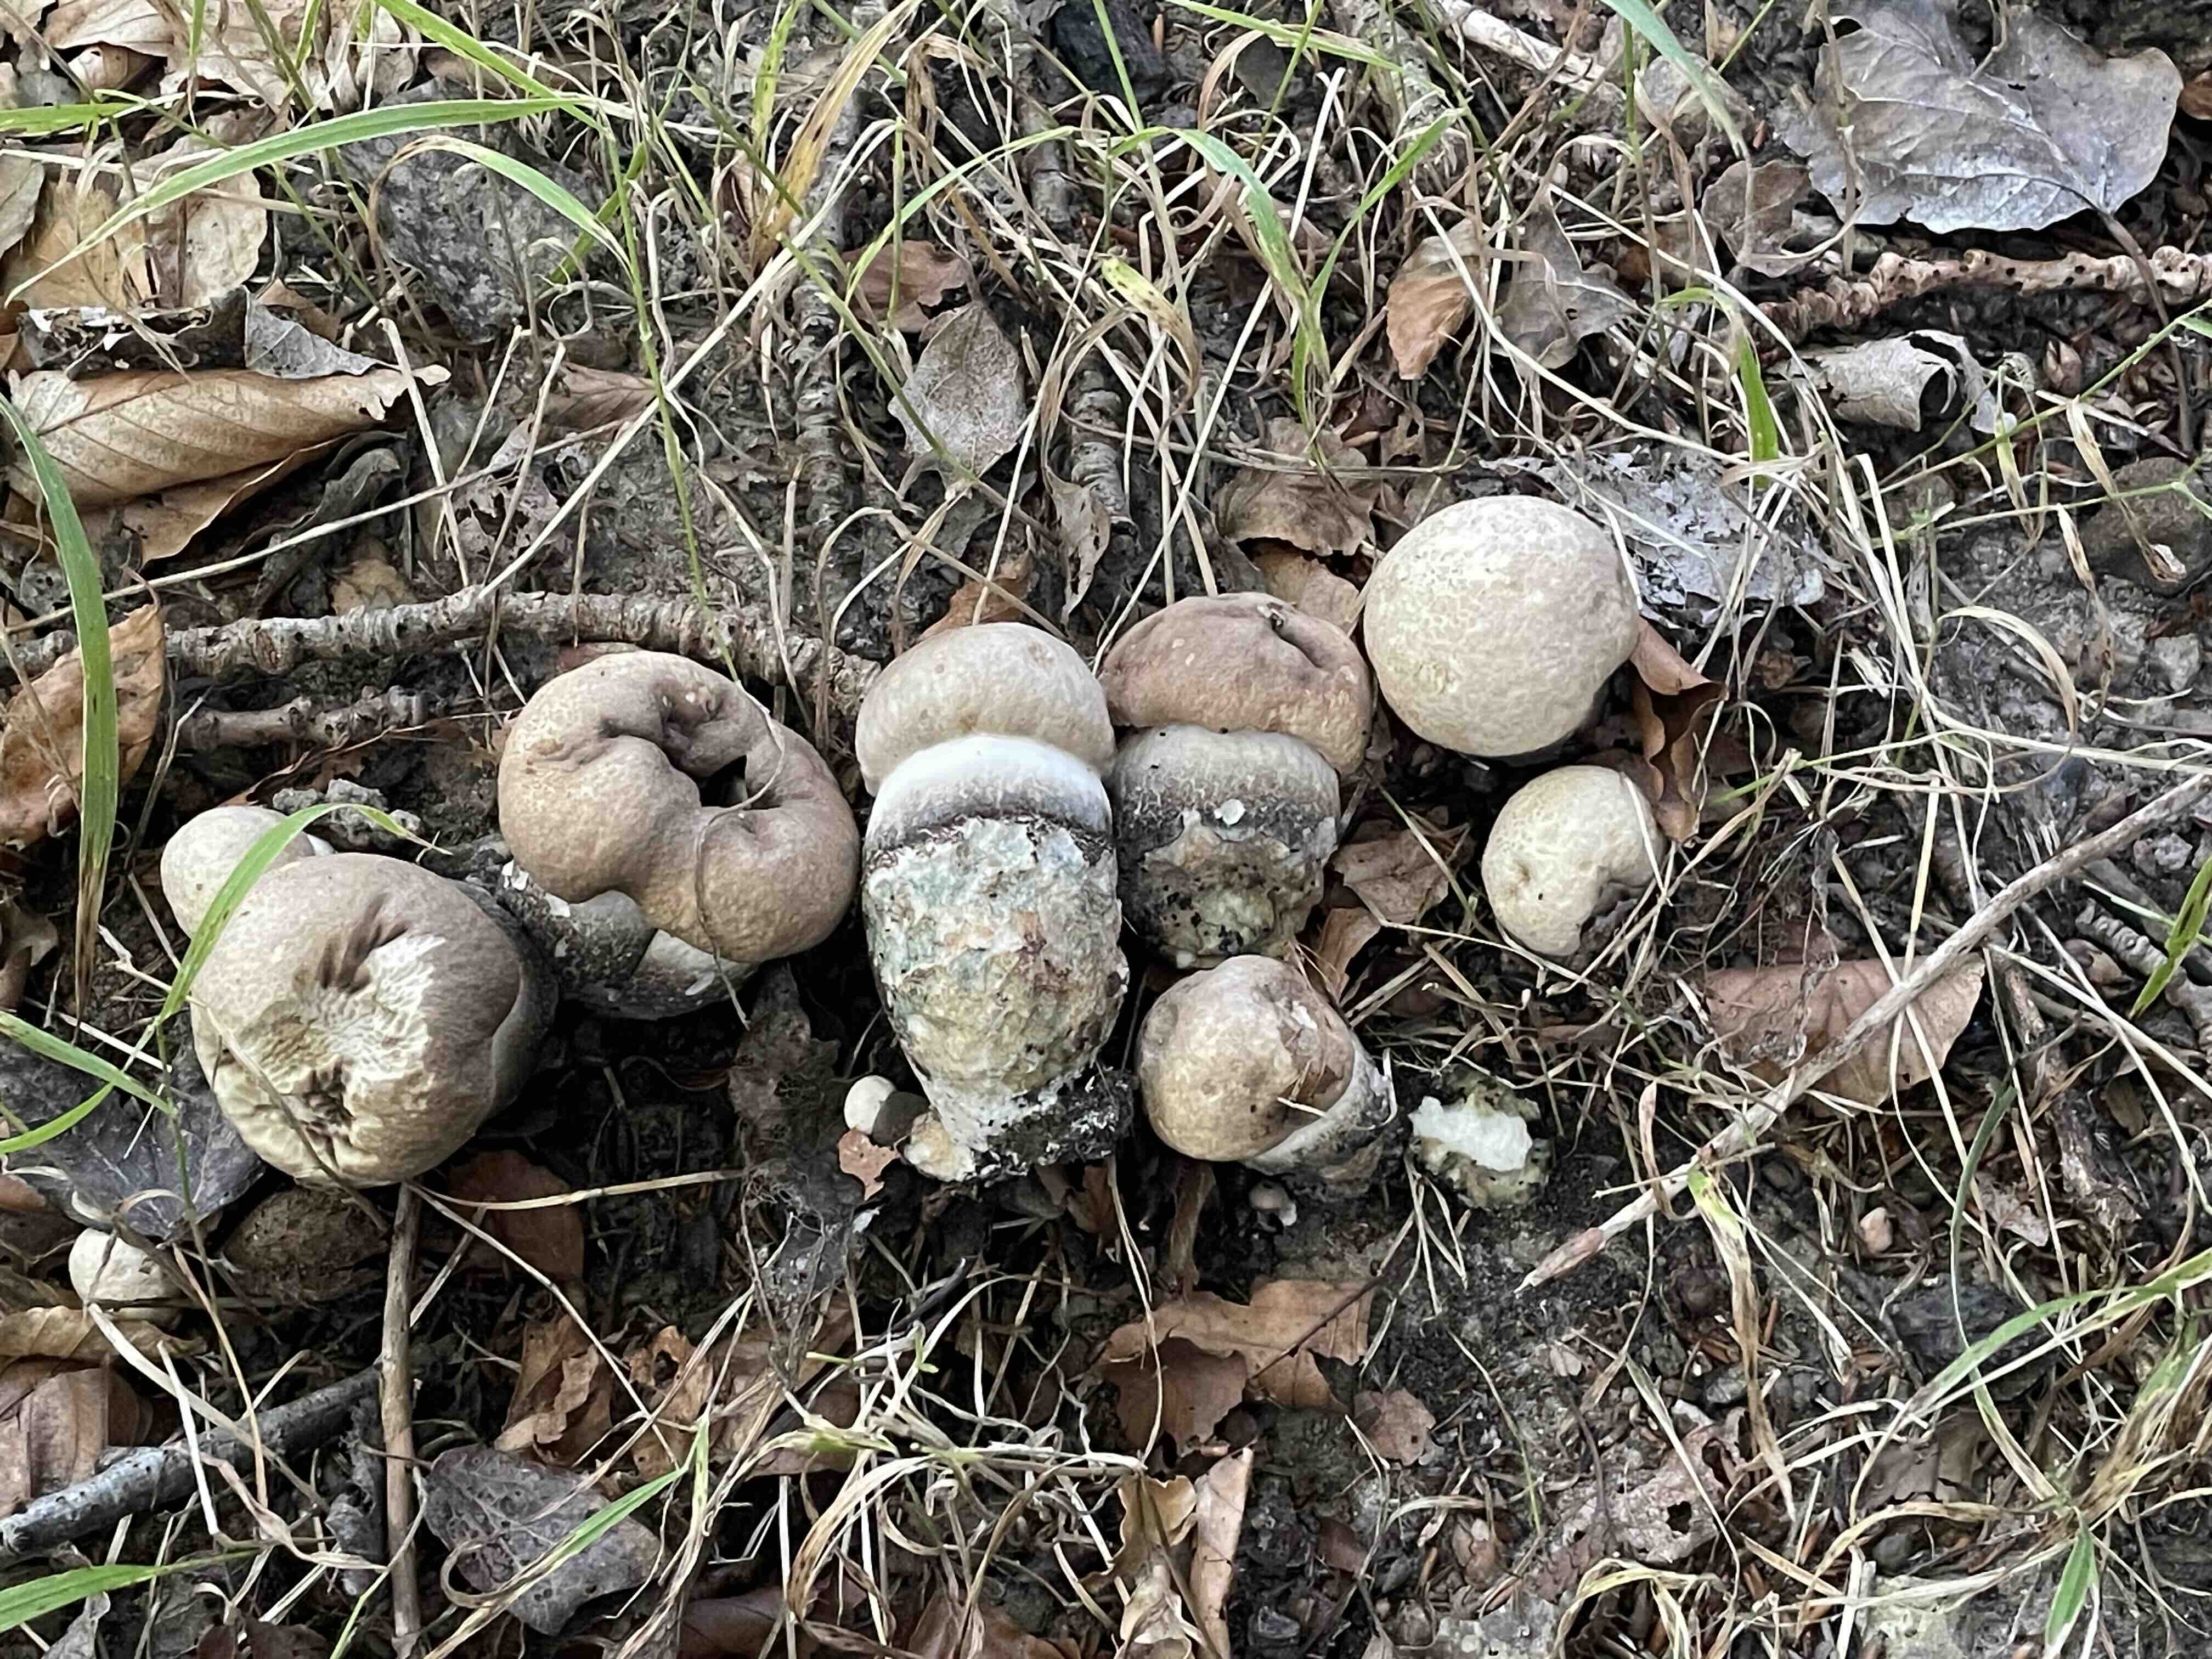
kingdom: Fungi
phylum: Basidiomycota
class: Agaricomycetes
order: Boletales
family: Boletaceae
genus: Leccinum
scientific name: Leccinum duriusculum
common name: poppel-skælrørhat
